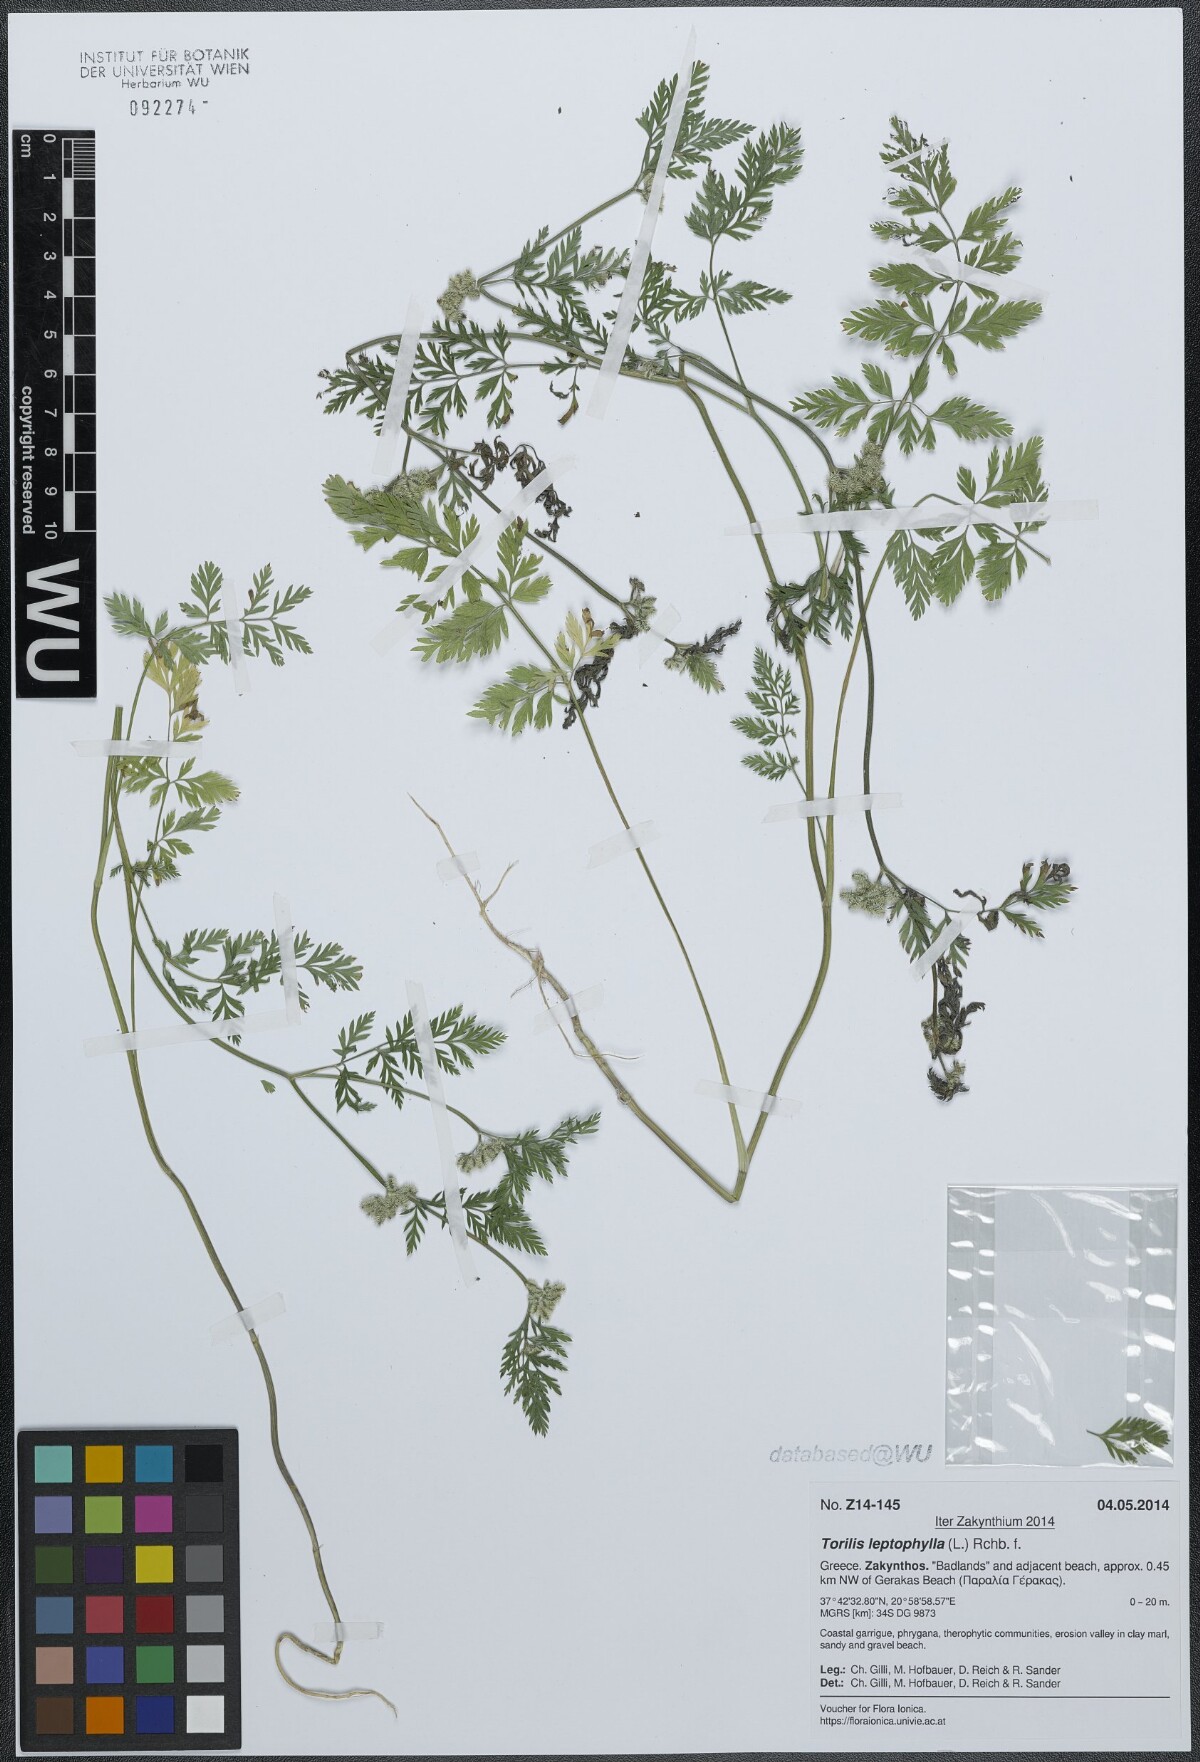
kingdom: Plantae
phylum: Tracheophyta
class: Magnoliopsida
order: Apiales
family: Apiaceae
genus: Torilis
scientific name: Torilis leptophylla
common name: Bristlefruit hedgeparsley
